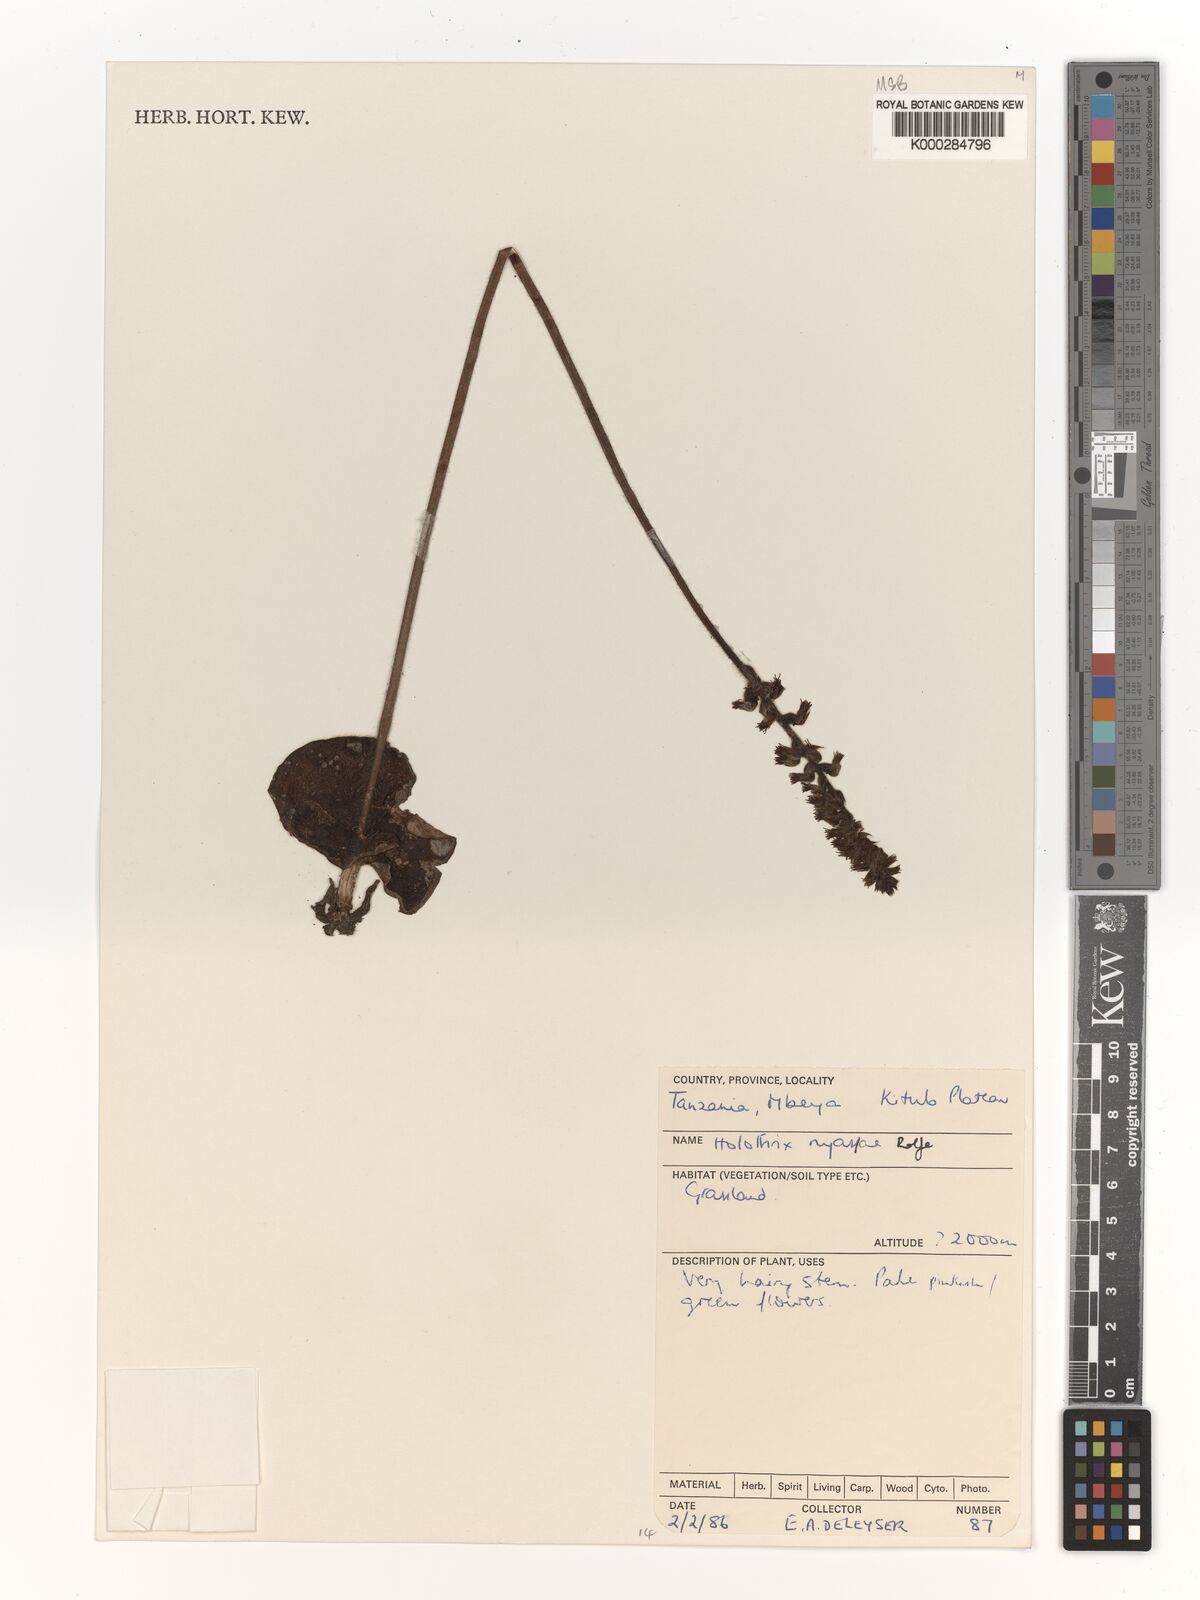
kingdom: Plantae
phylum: Tracheophyta
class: Liliopsida
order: Asparagales
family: Orchidaceae
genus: Holothrix
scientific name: Holothrix nyasae
